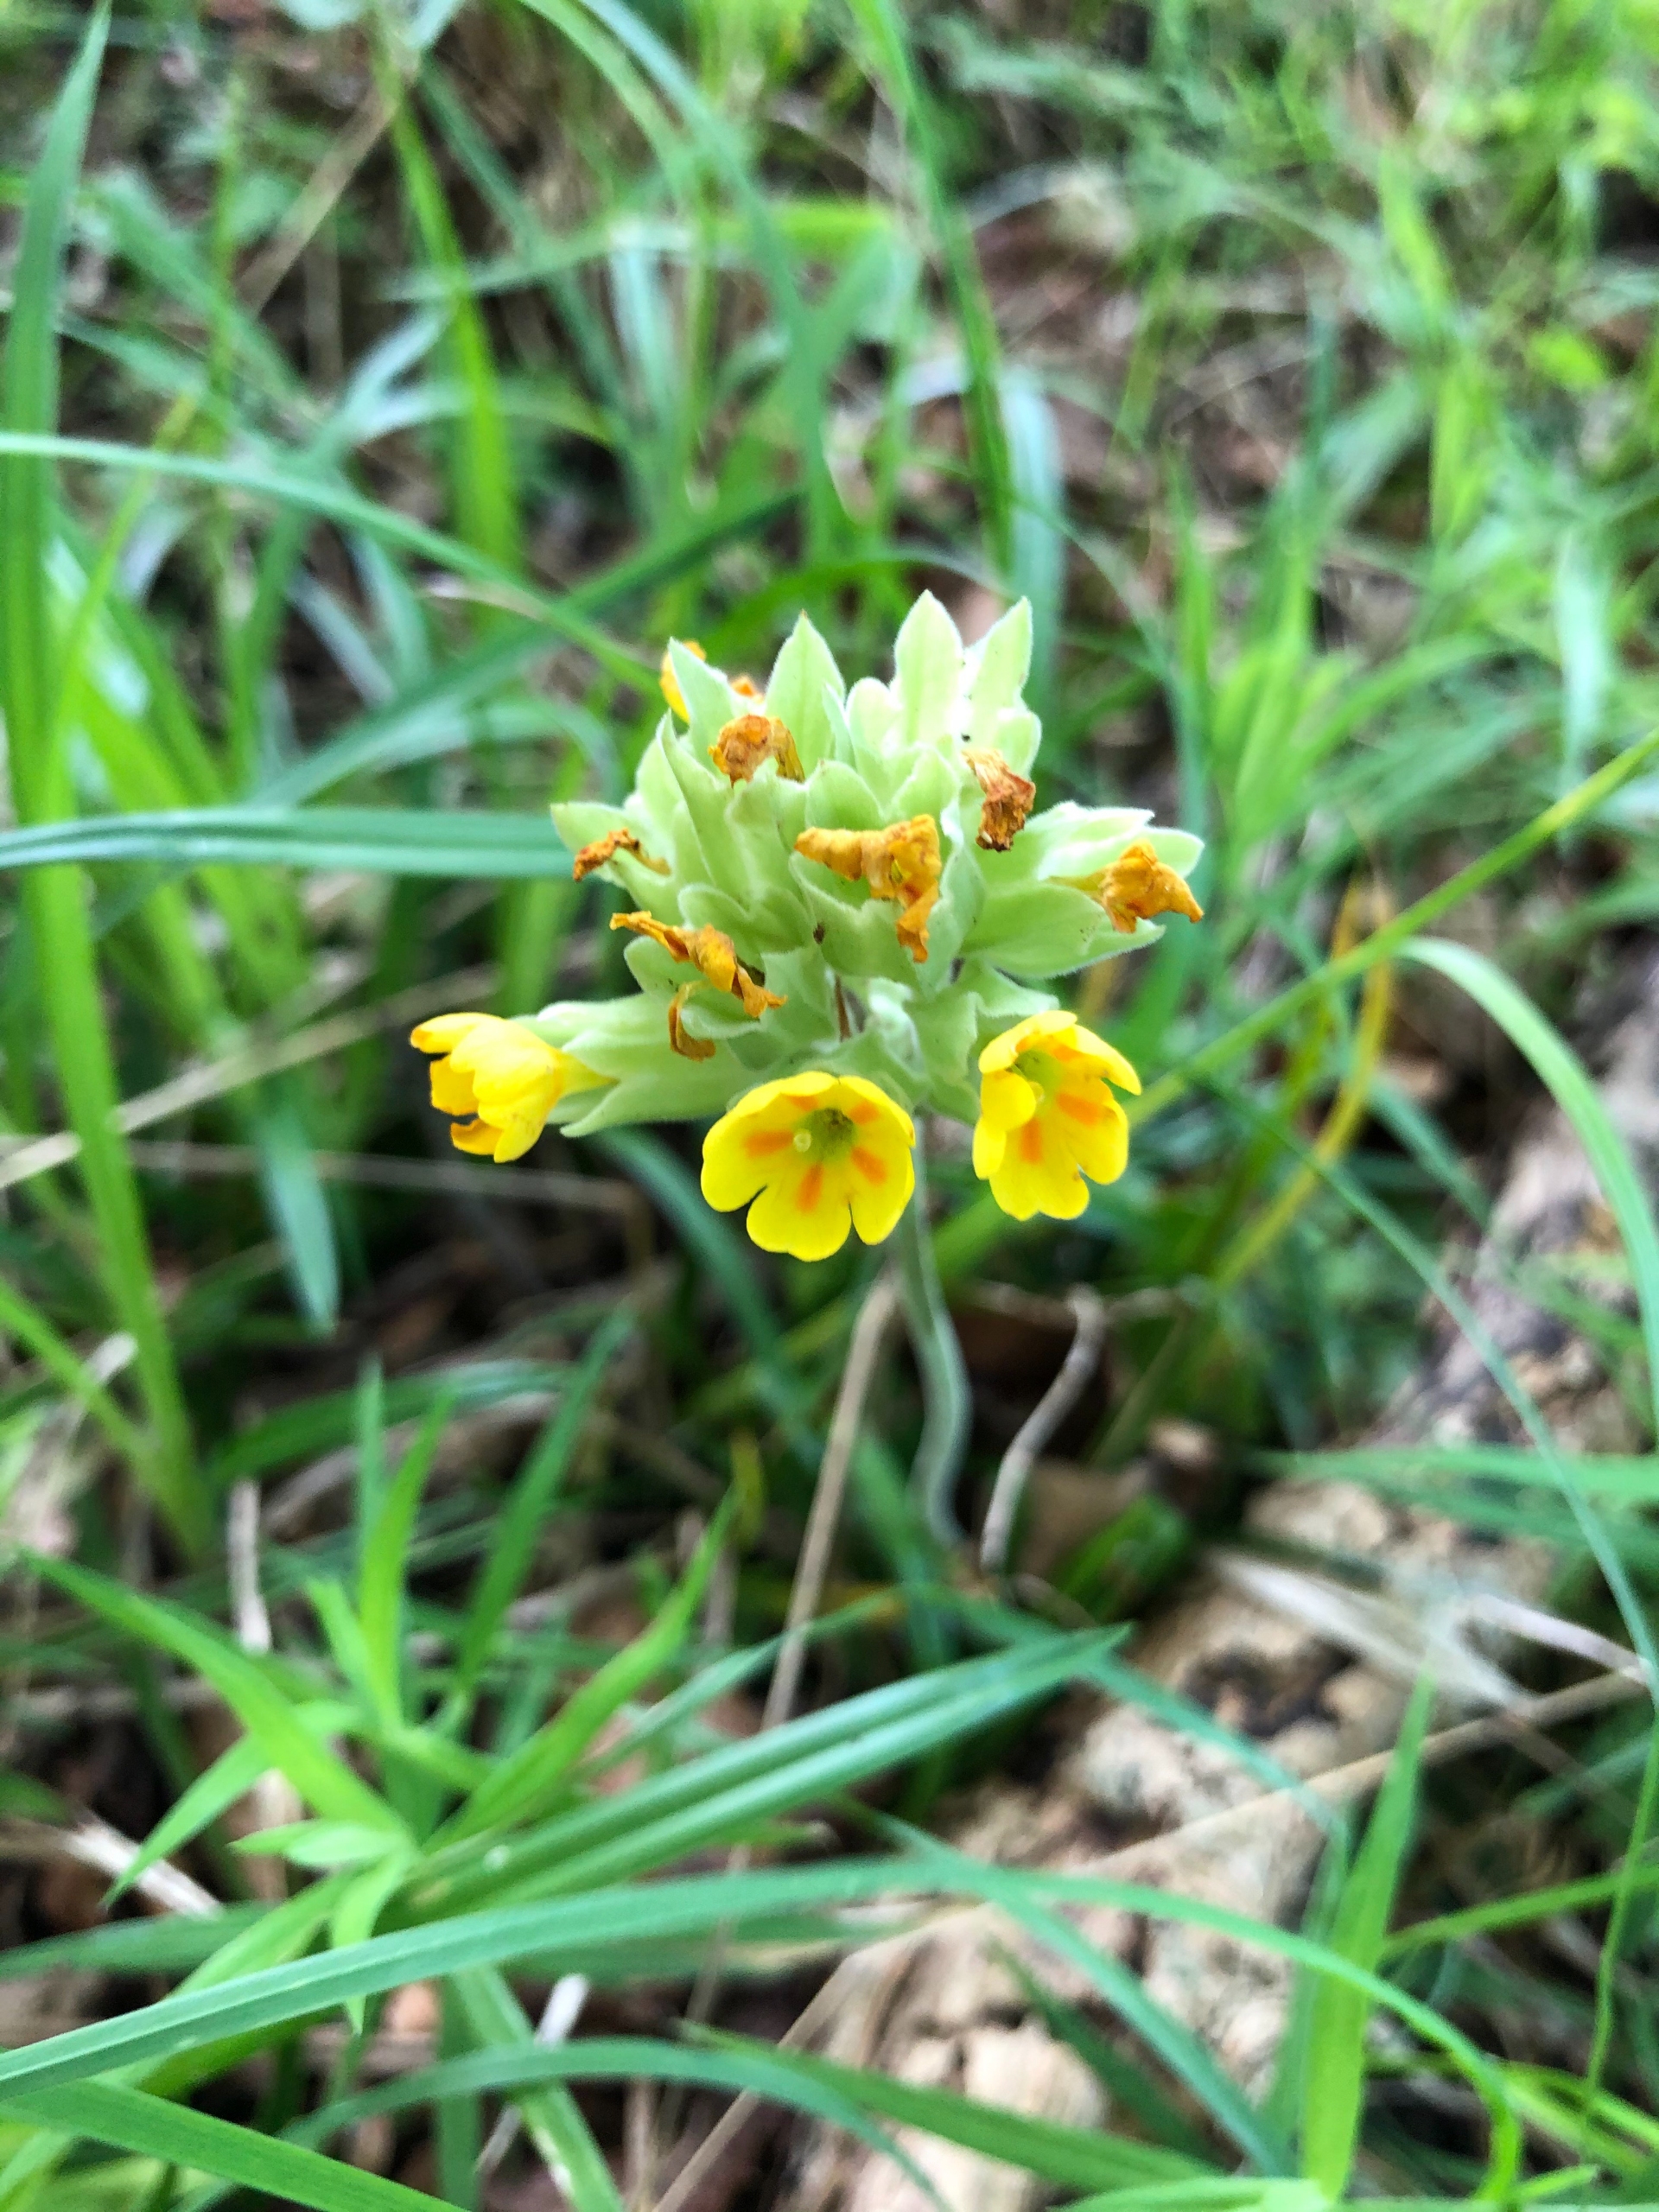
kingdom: Plantae
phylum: Tracheophyta
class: Magnoliopsida
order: Ericales
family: Primulaceae
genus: Primula
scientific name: Primula veris
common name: Hulkravet kodriver
